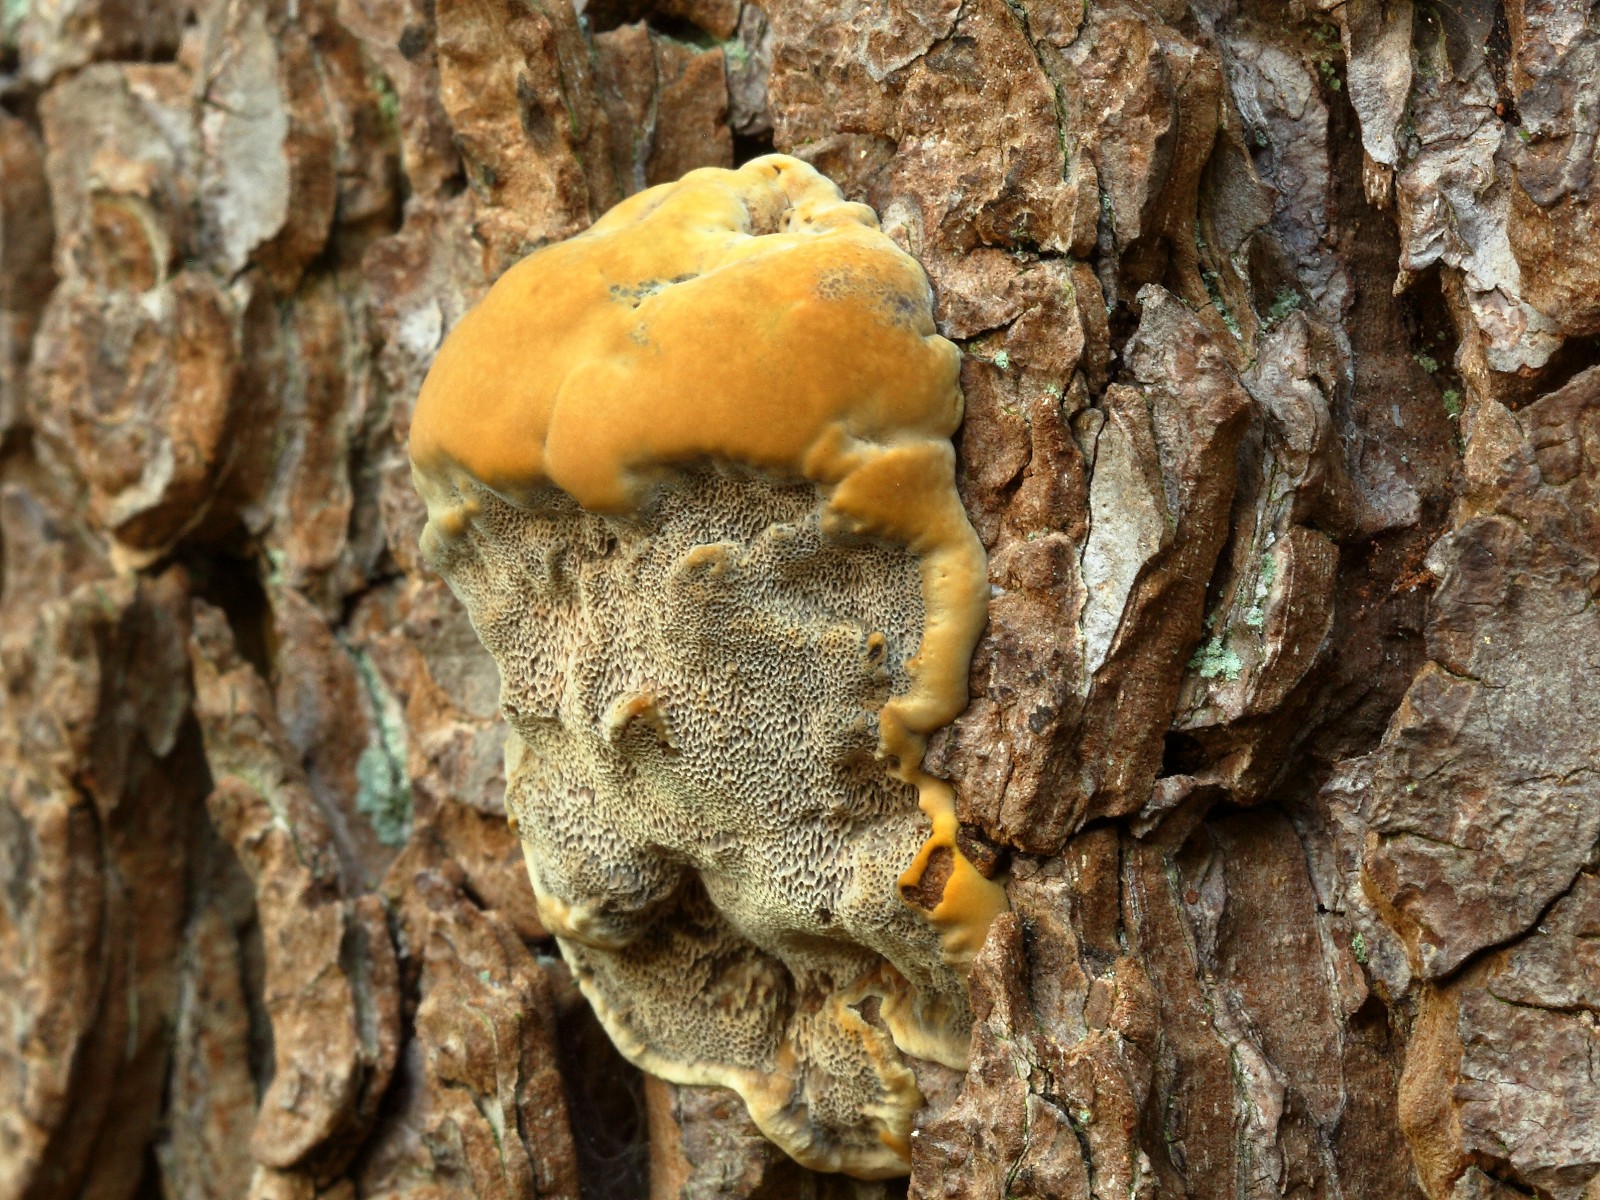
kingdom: Fungi
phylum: Basidiomycota
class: Agaricomycetes
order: Hymenochaetales
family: Hymenochaetaceae
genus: Xanthoporia
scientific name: Xanthoporia radiata
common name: elle-spejlporesvamp
